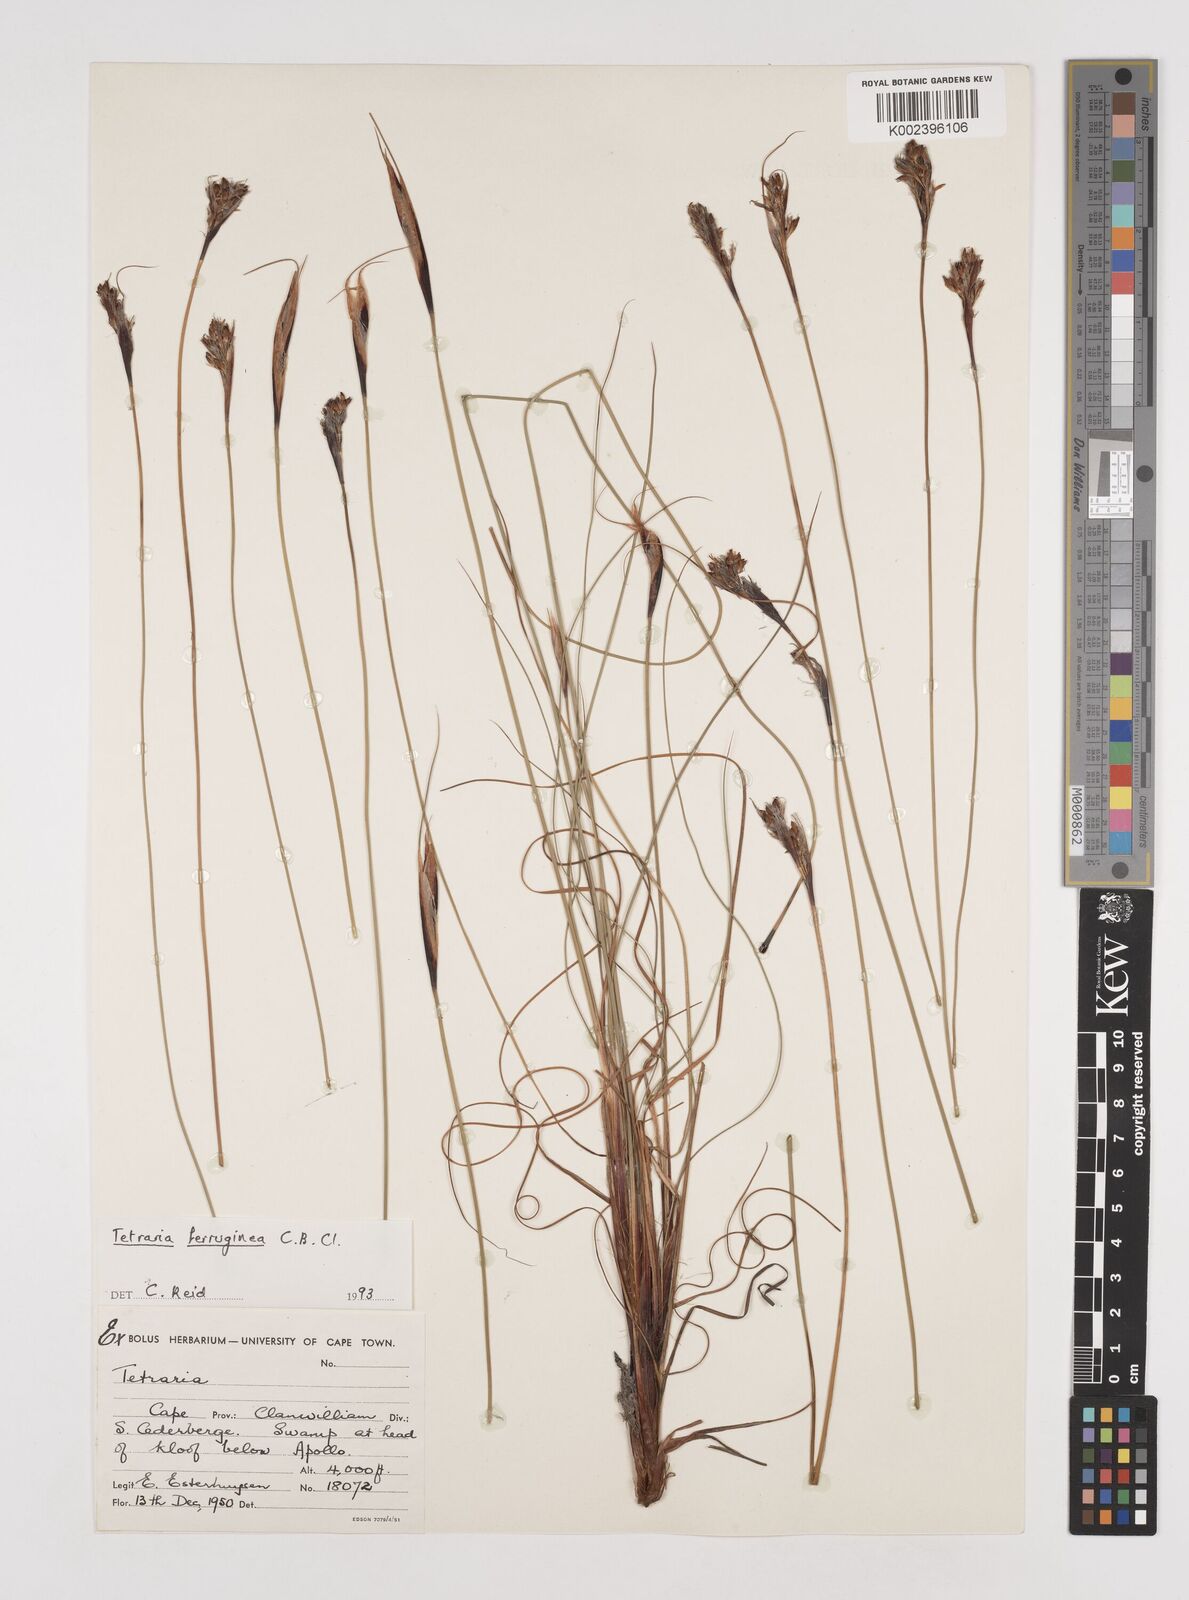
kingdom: Plantae
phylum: Tracheophyta
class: Liliopsida
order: Poales
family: Cyperaceae
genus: Tetraria
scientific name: Tetraria ferruginea
